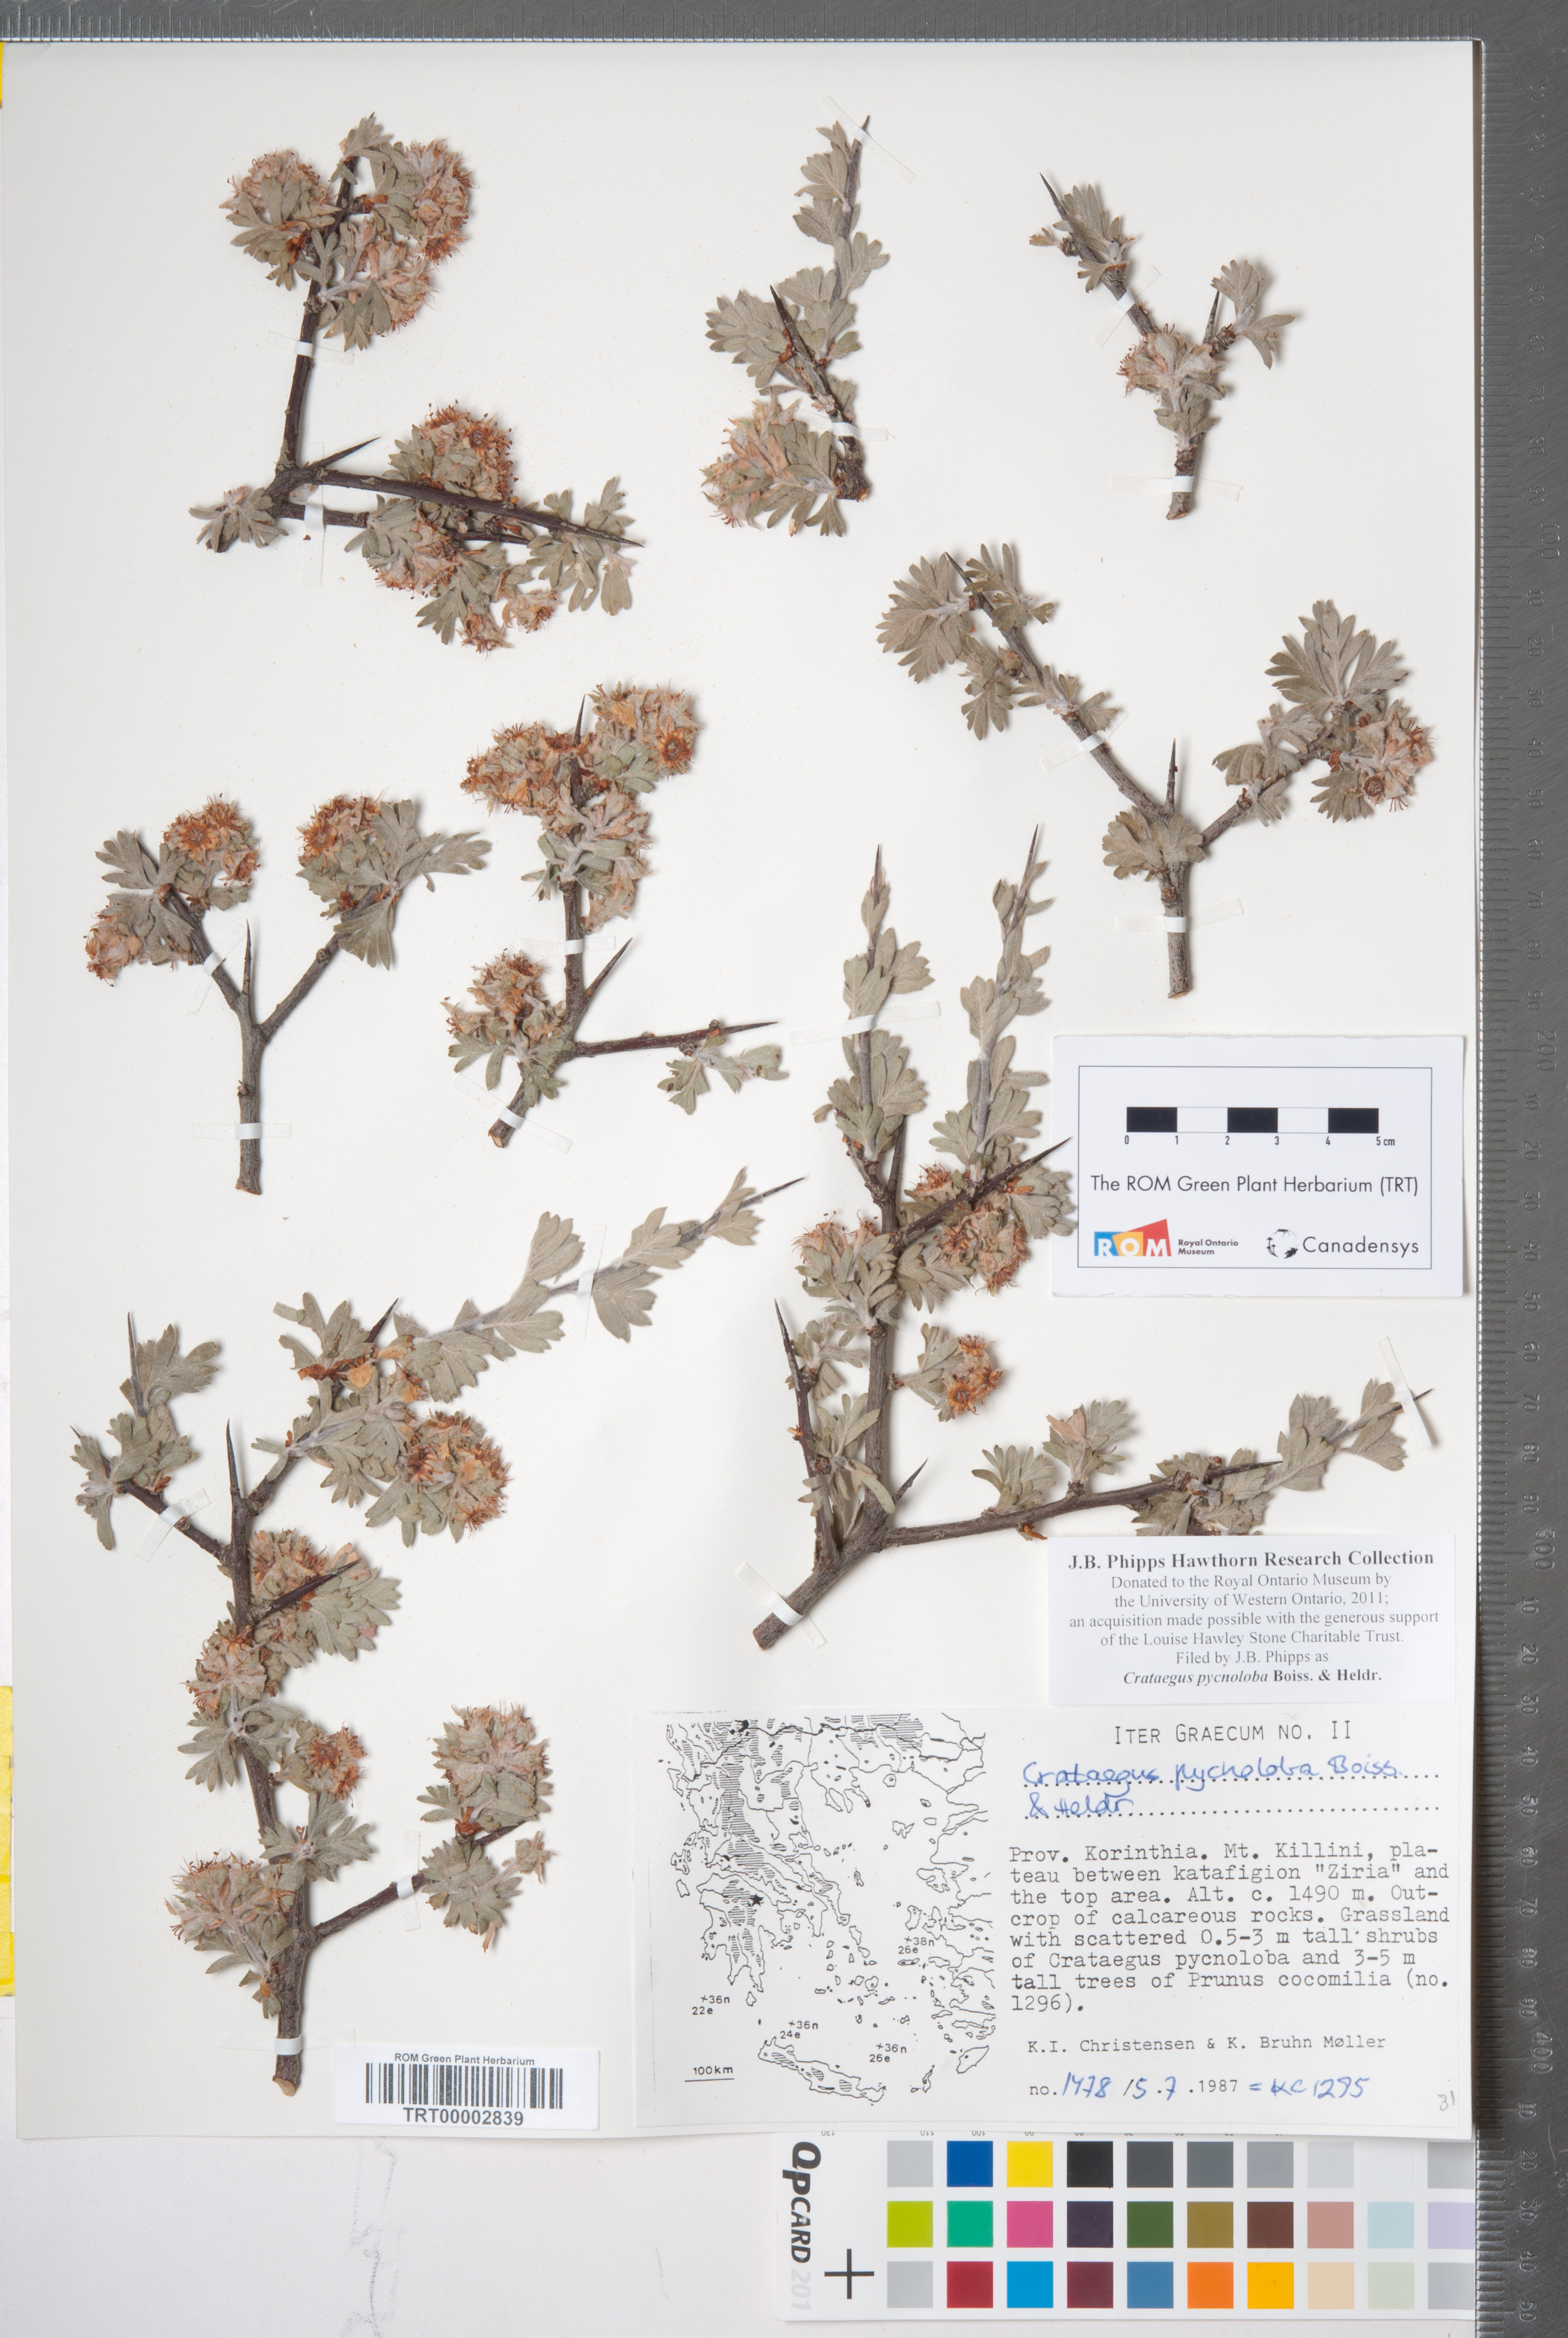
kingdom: Plantae
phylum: Tracheophyta
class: Magnoliopsida
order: Rosales
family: Rosaceae
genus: Crataegus
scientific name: Crataegus pycnoloba
